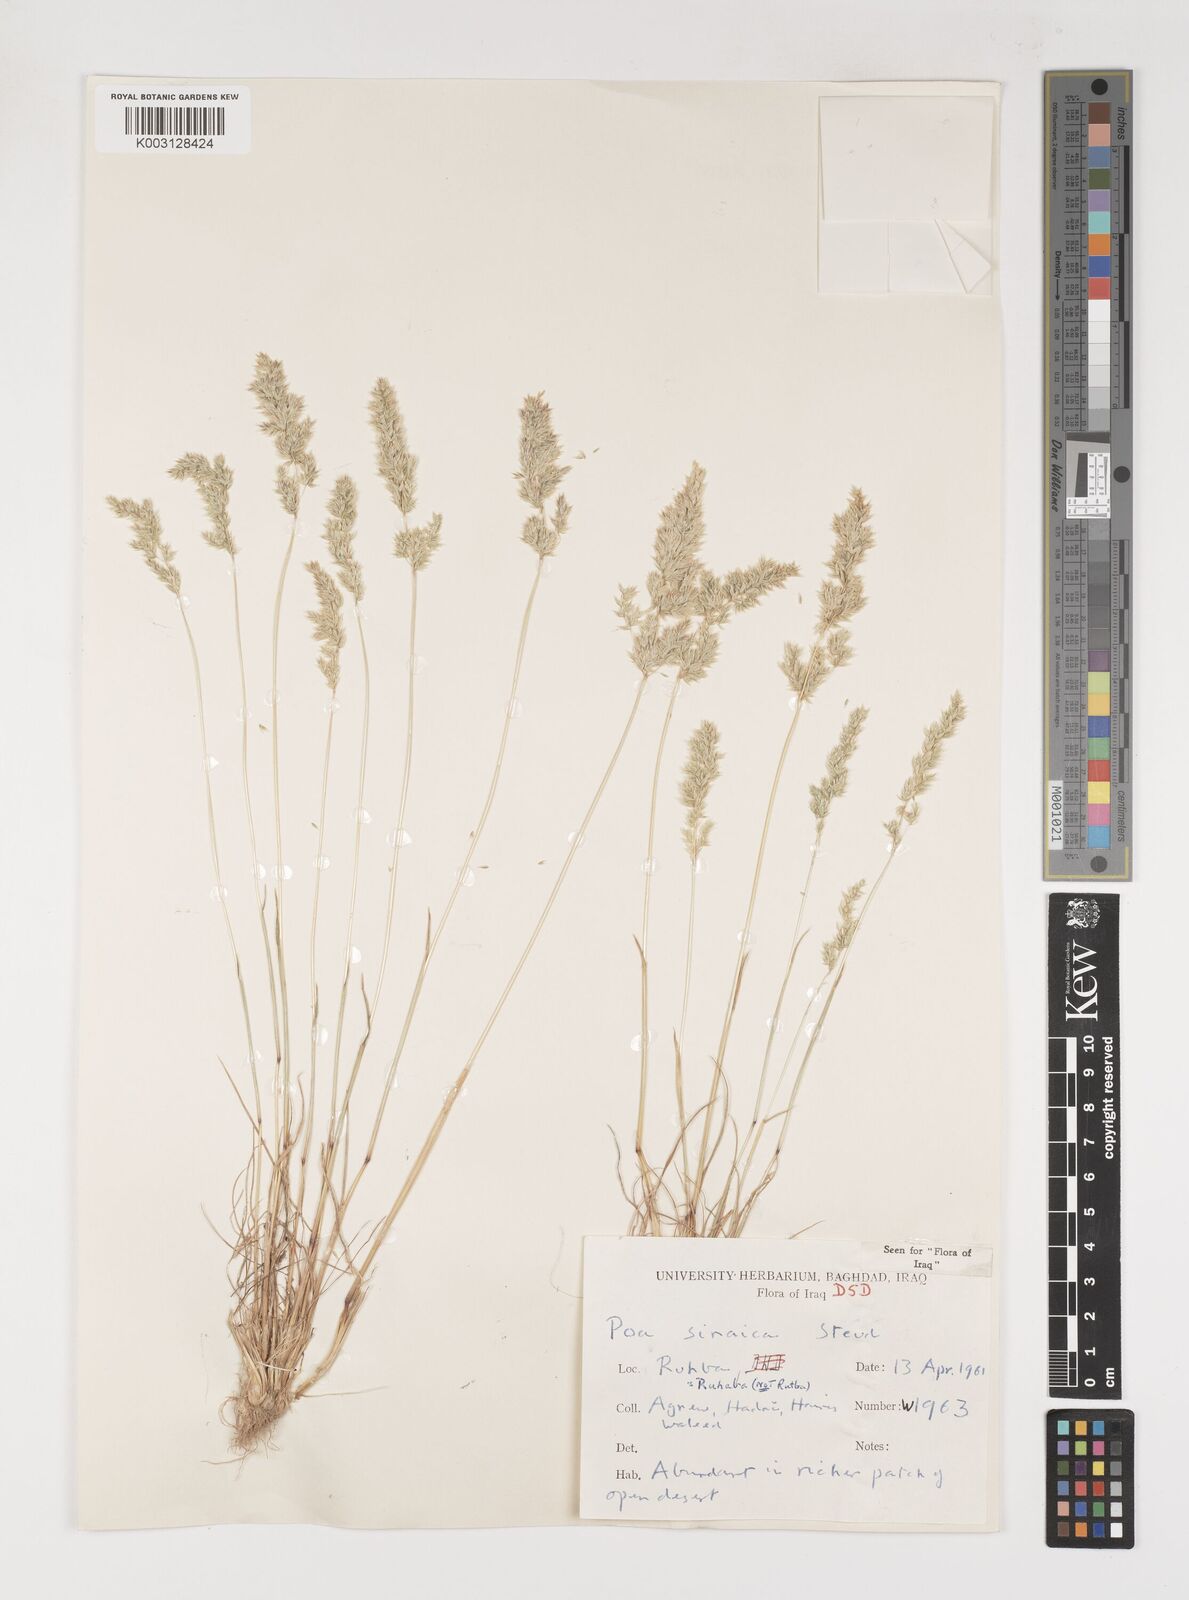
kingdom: Plantae
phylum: Tracheophyta
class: Liliopsida
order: Poales
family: Poaceae
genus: Poa
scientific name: Poa sinaica
